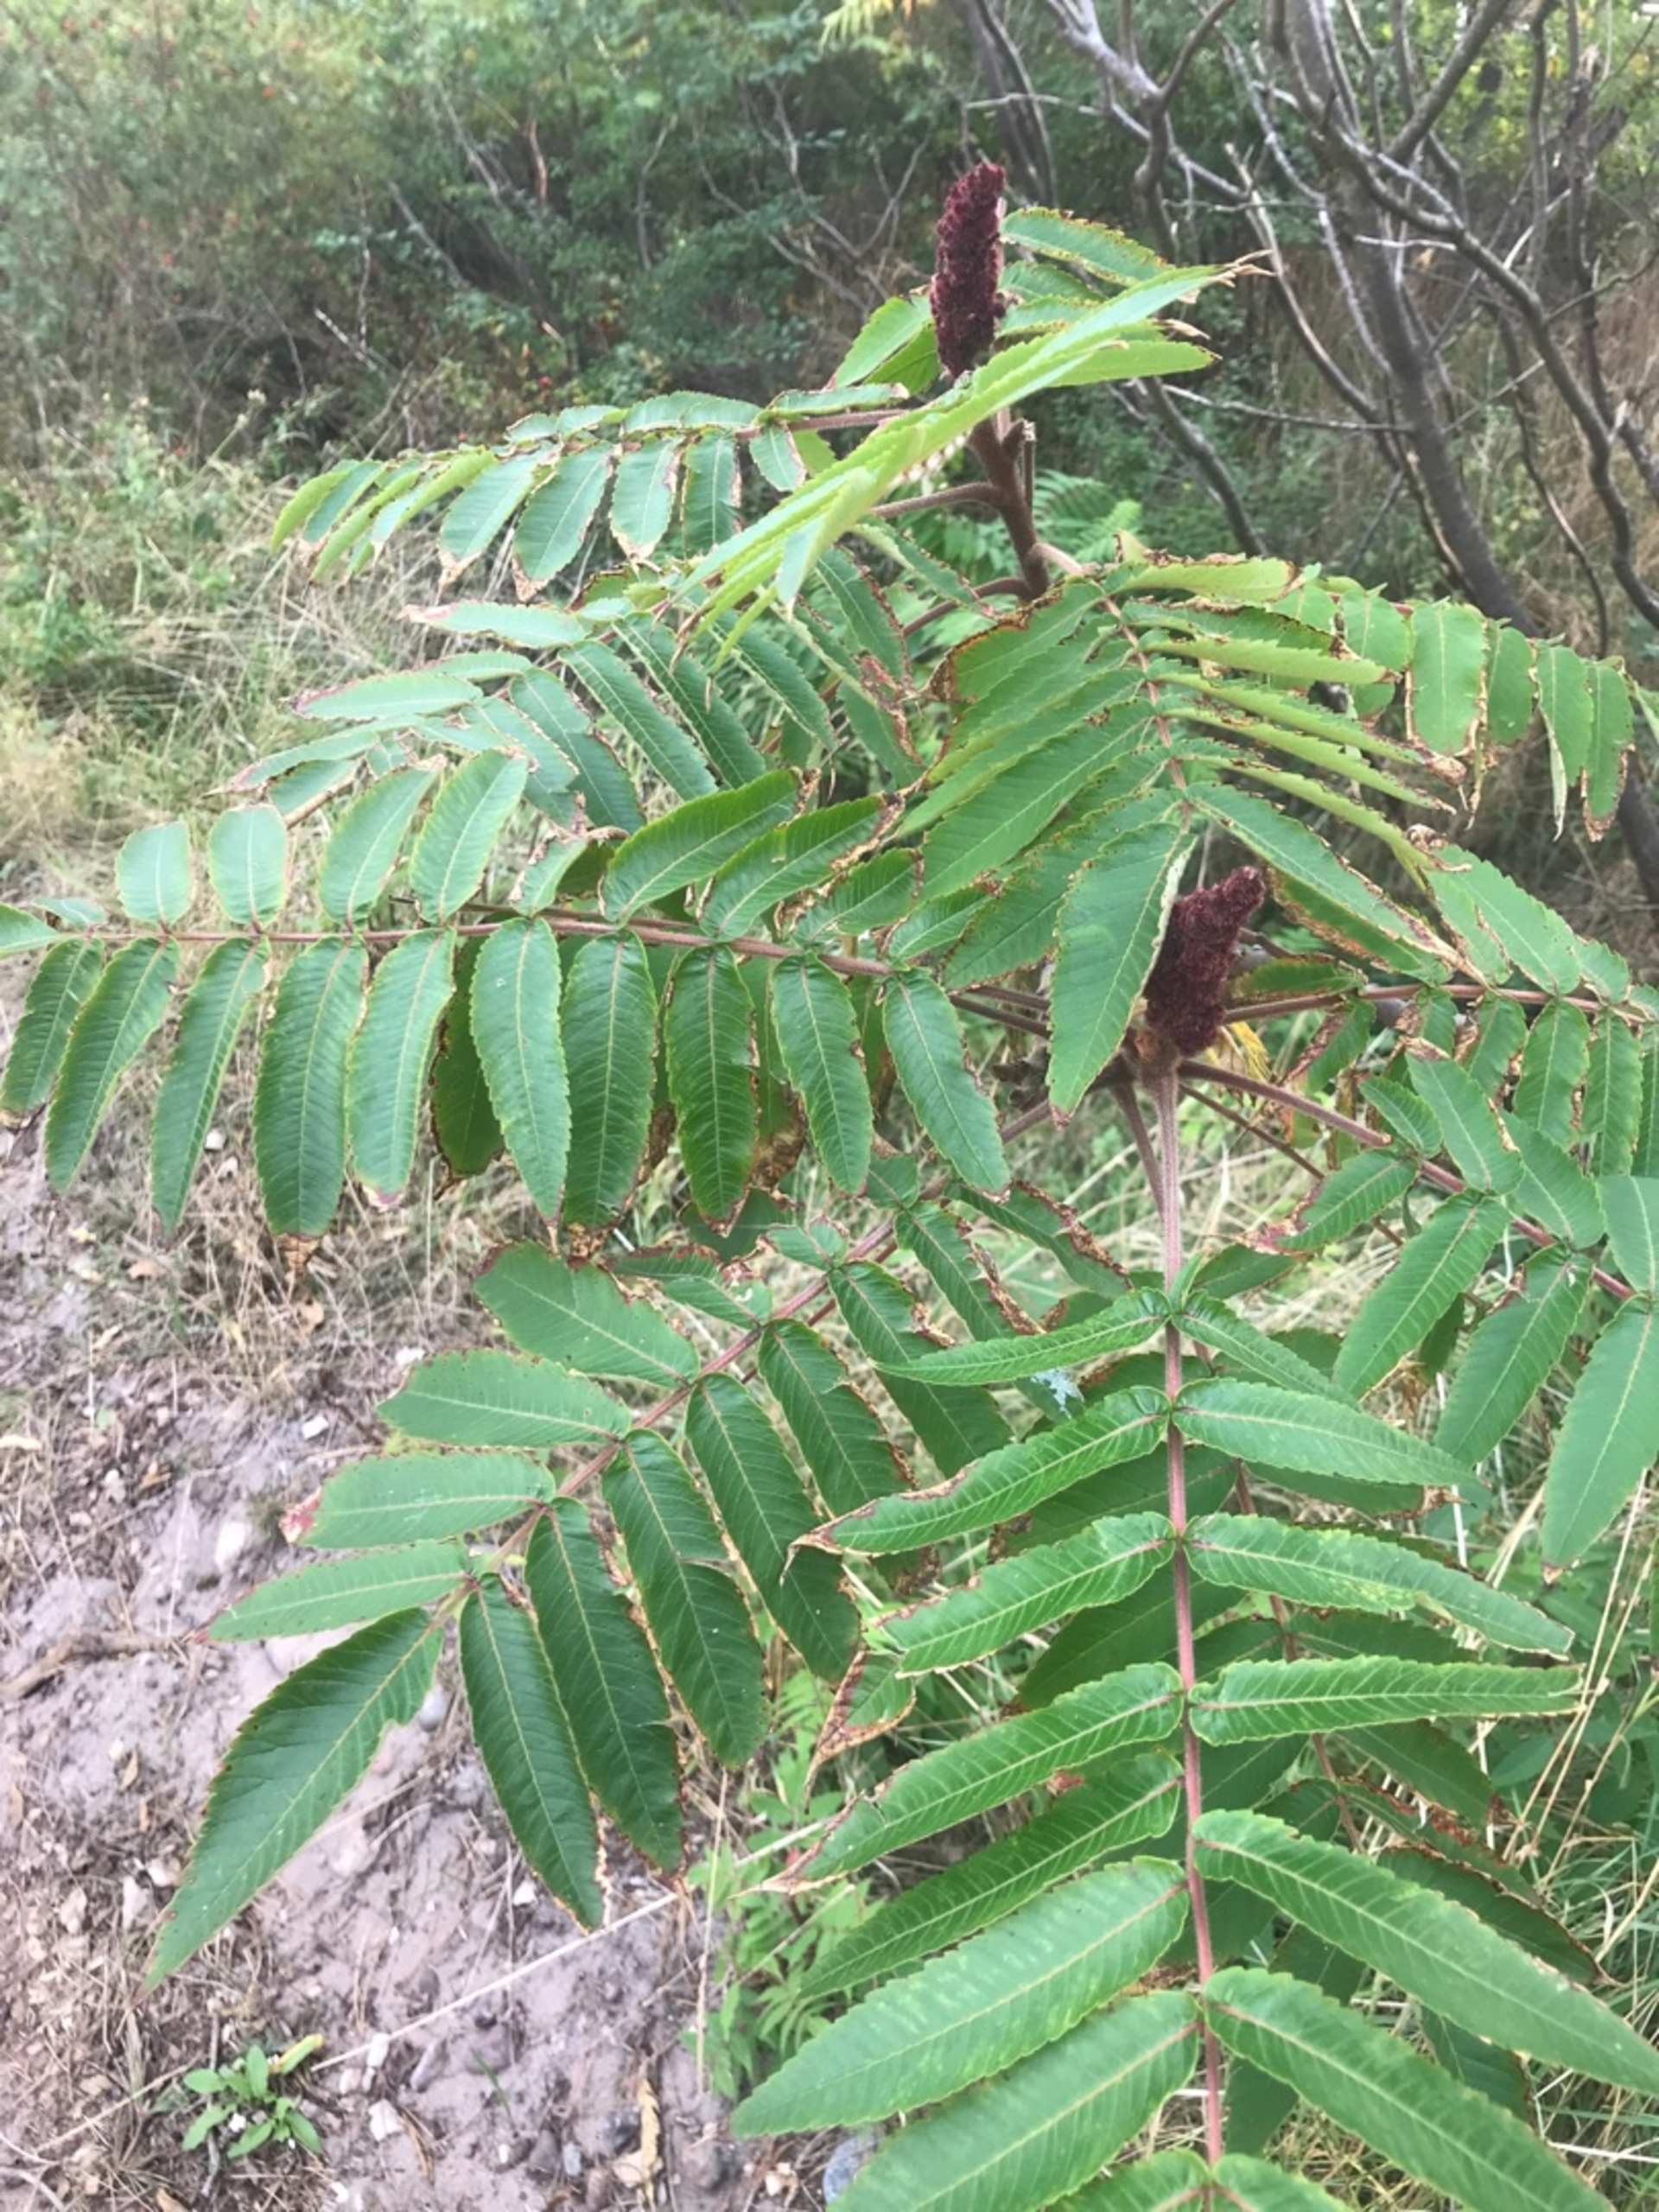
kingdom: Plantae
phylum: Tracheophyta
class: Magnoliopsida
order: Sapindales
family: Anacardiaceae
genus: Rhus
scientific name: Rhus typhina
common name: Hjortetaktræ
